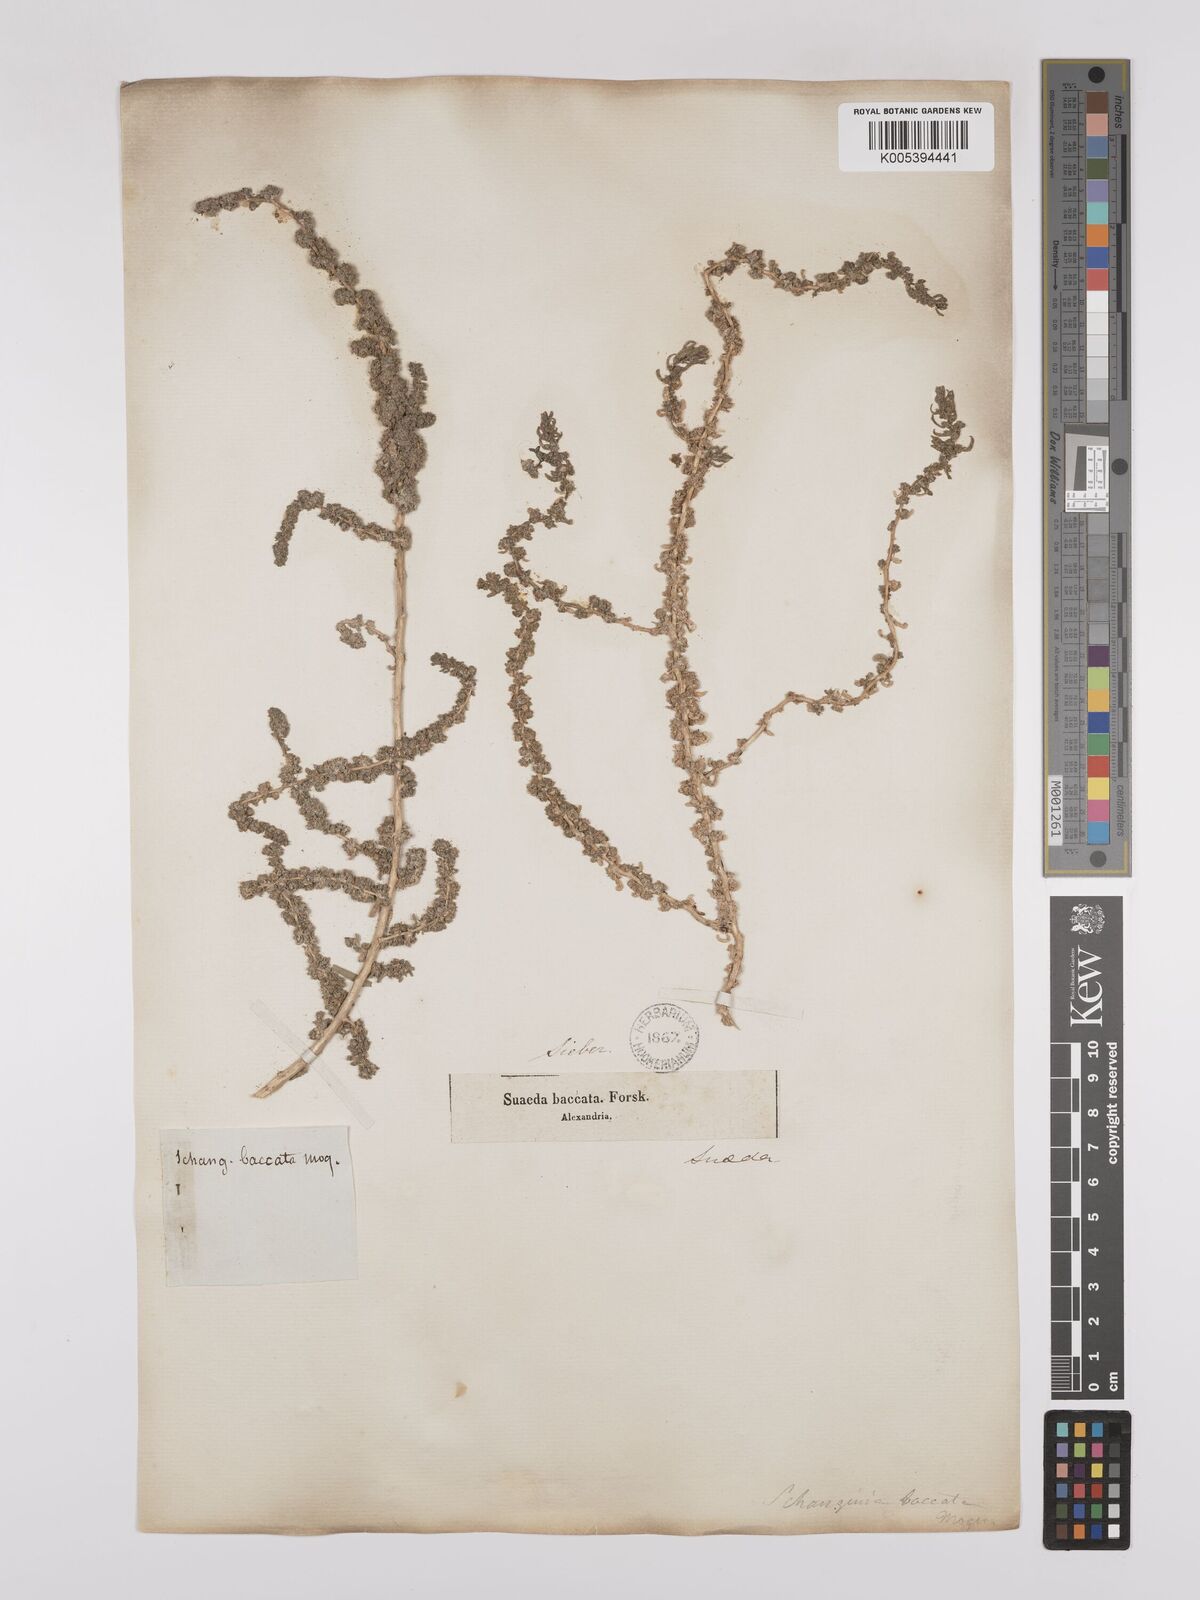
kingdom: Plantae
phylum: Tracheophyta
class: Magnoliopsida
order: Caryophyllales
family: Amaranthaceae
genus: Suaeda
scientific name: Suaeda aegyptiaca
